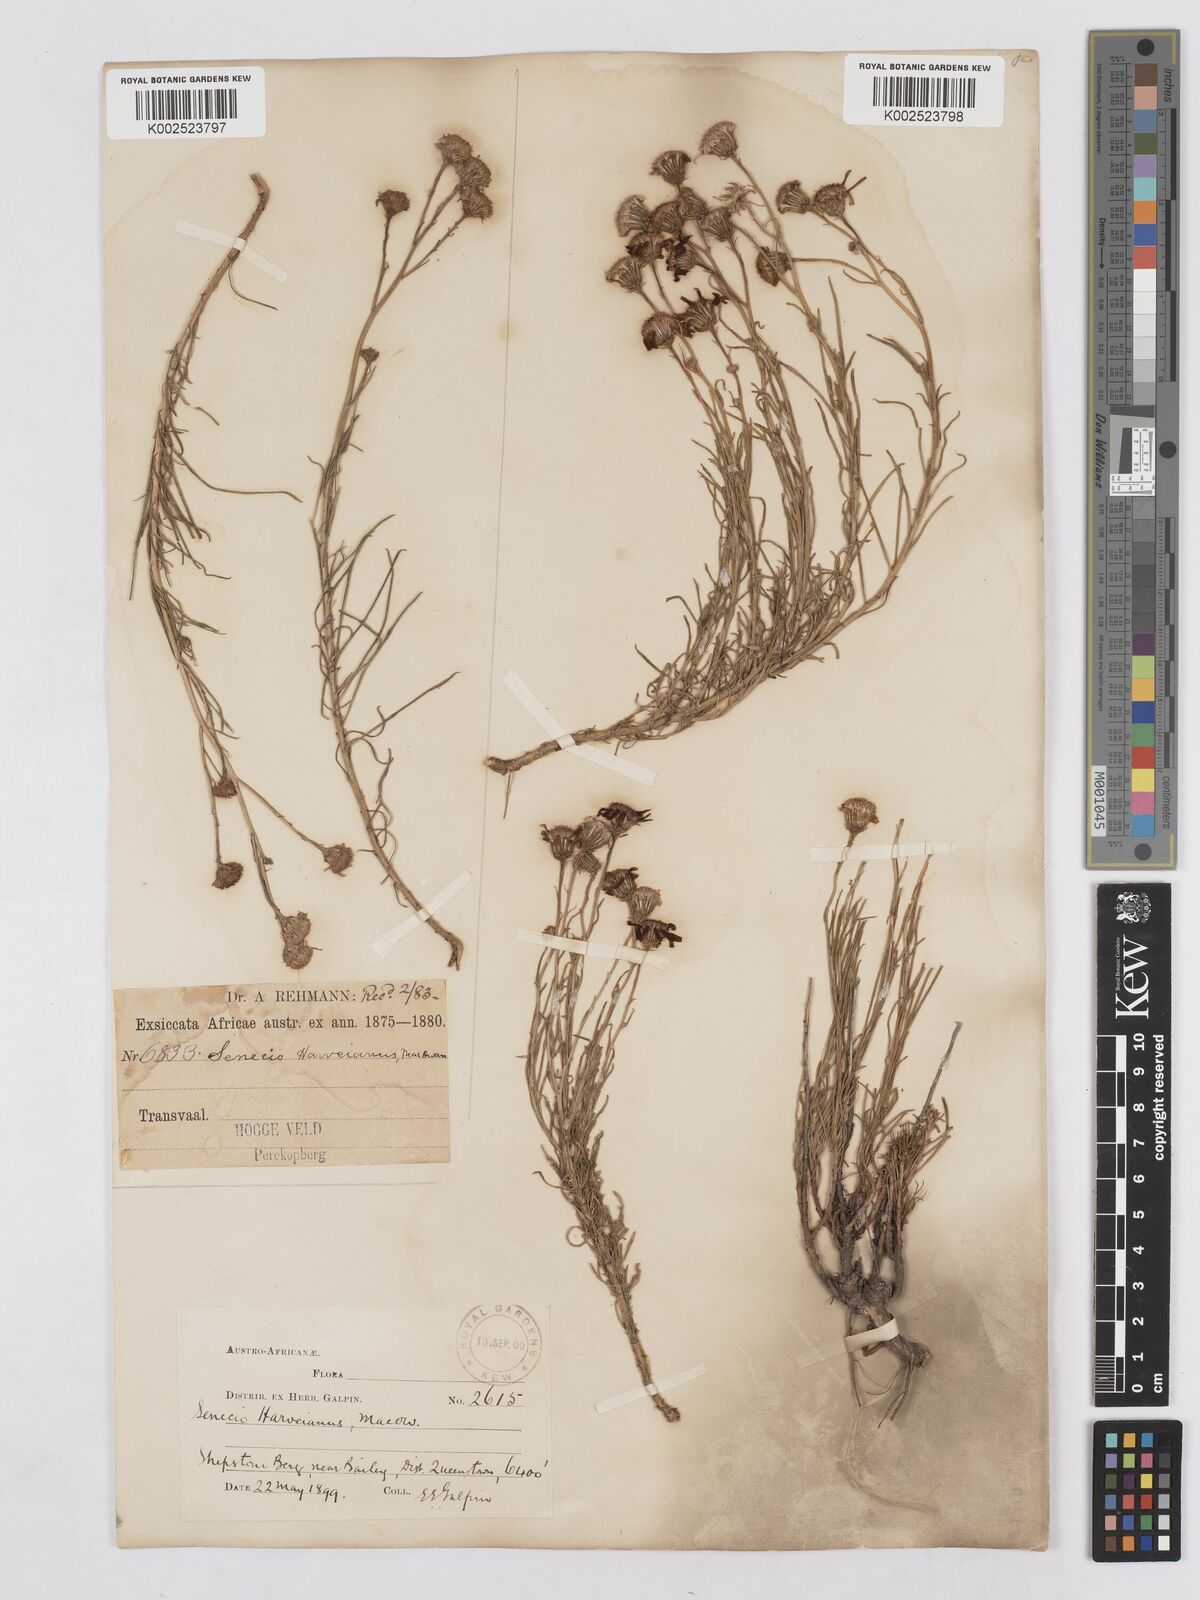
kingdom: Plantae
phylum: Tracheophyta
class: Magnoliopsida
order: Asterales
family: Asteraceae
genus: Senecio
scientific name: Senecio harveyanus
